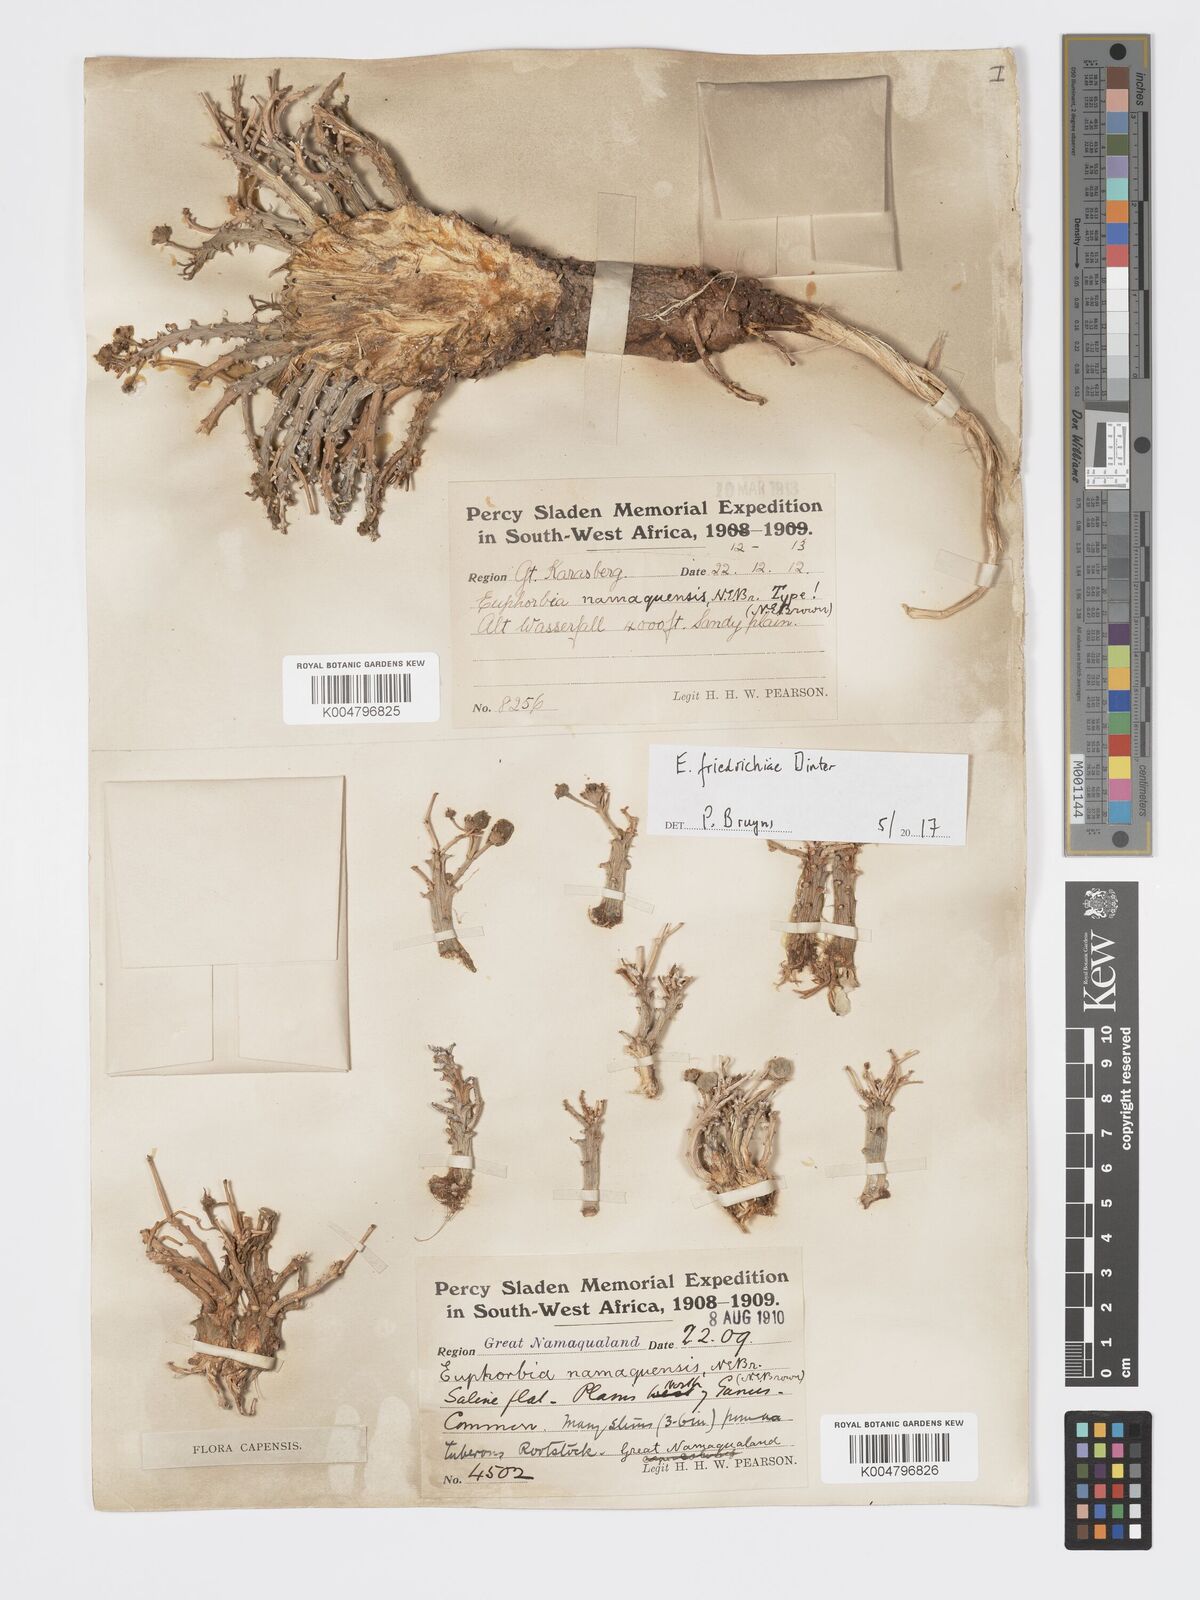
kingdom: Plantae
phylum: Tracheophyta
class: Magnoliopsida
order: Malpighiales
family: Euphorbiaceae
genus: Euphorbia
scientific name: Euphorbia friedrichiae
